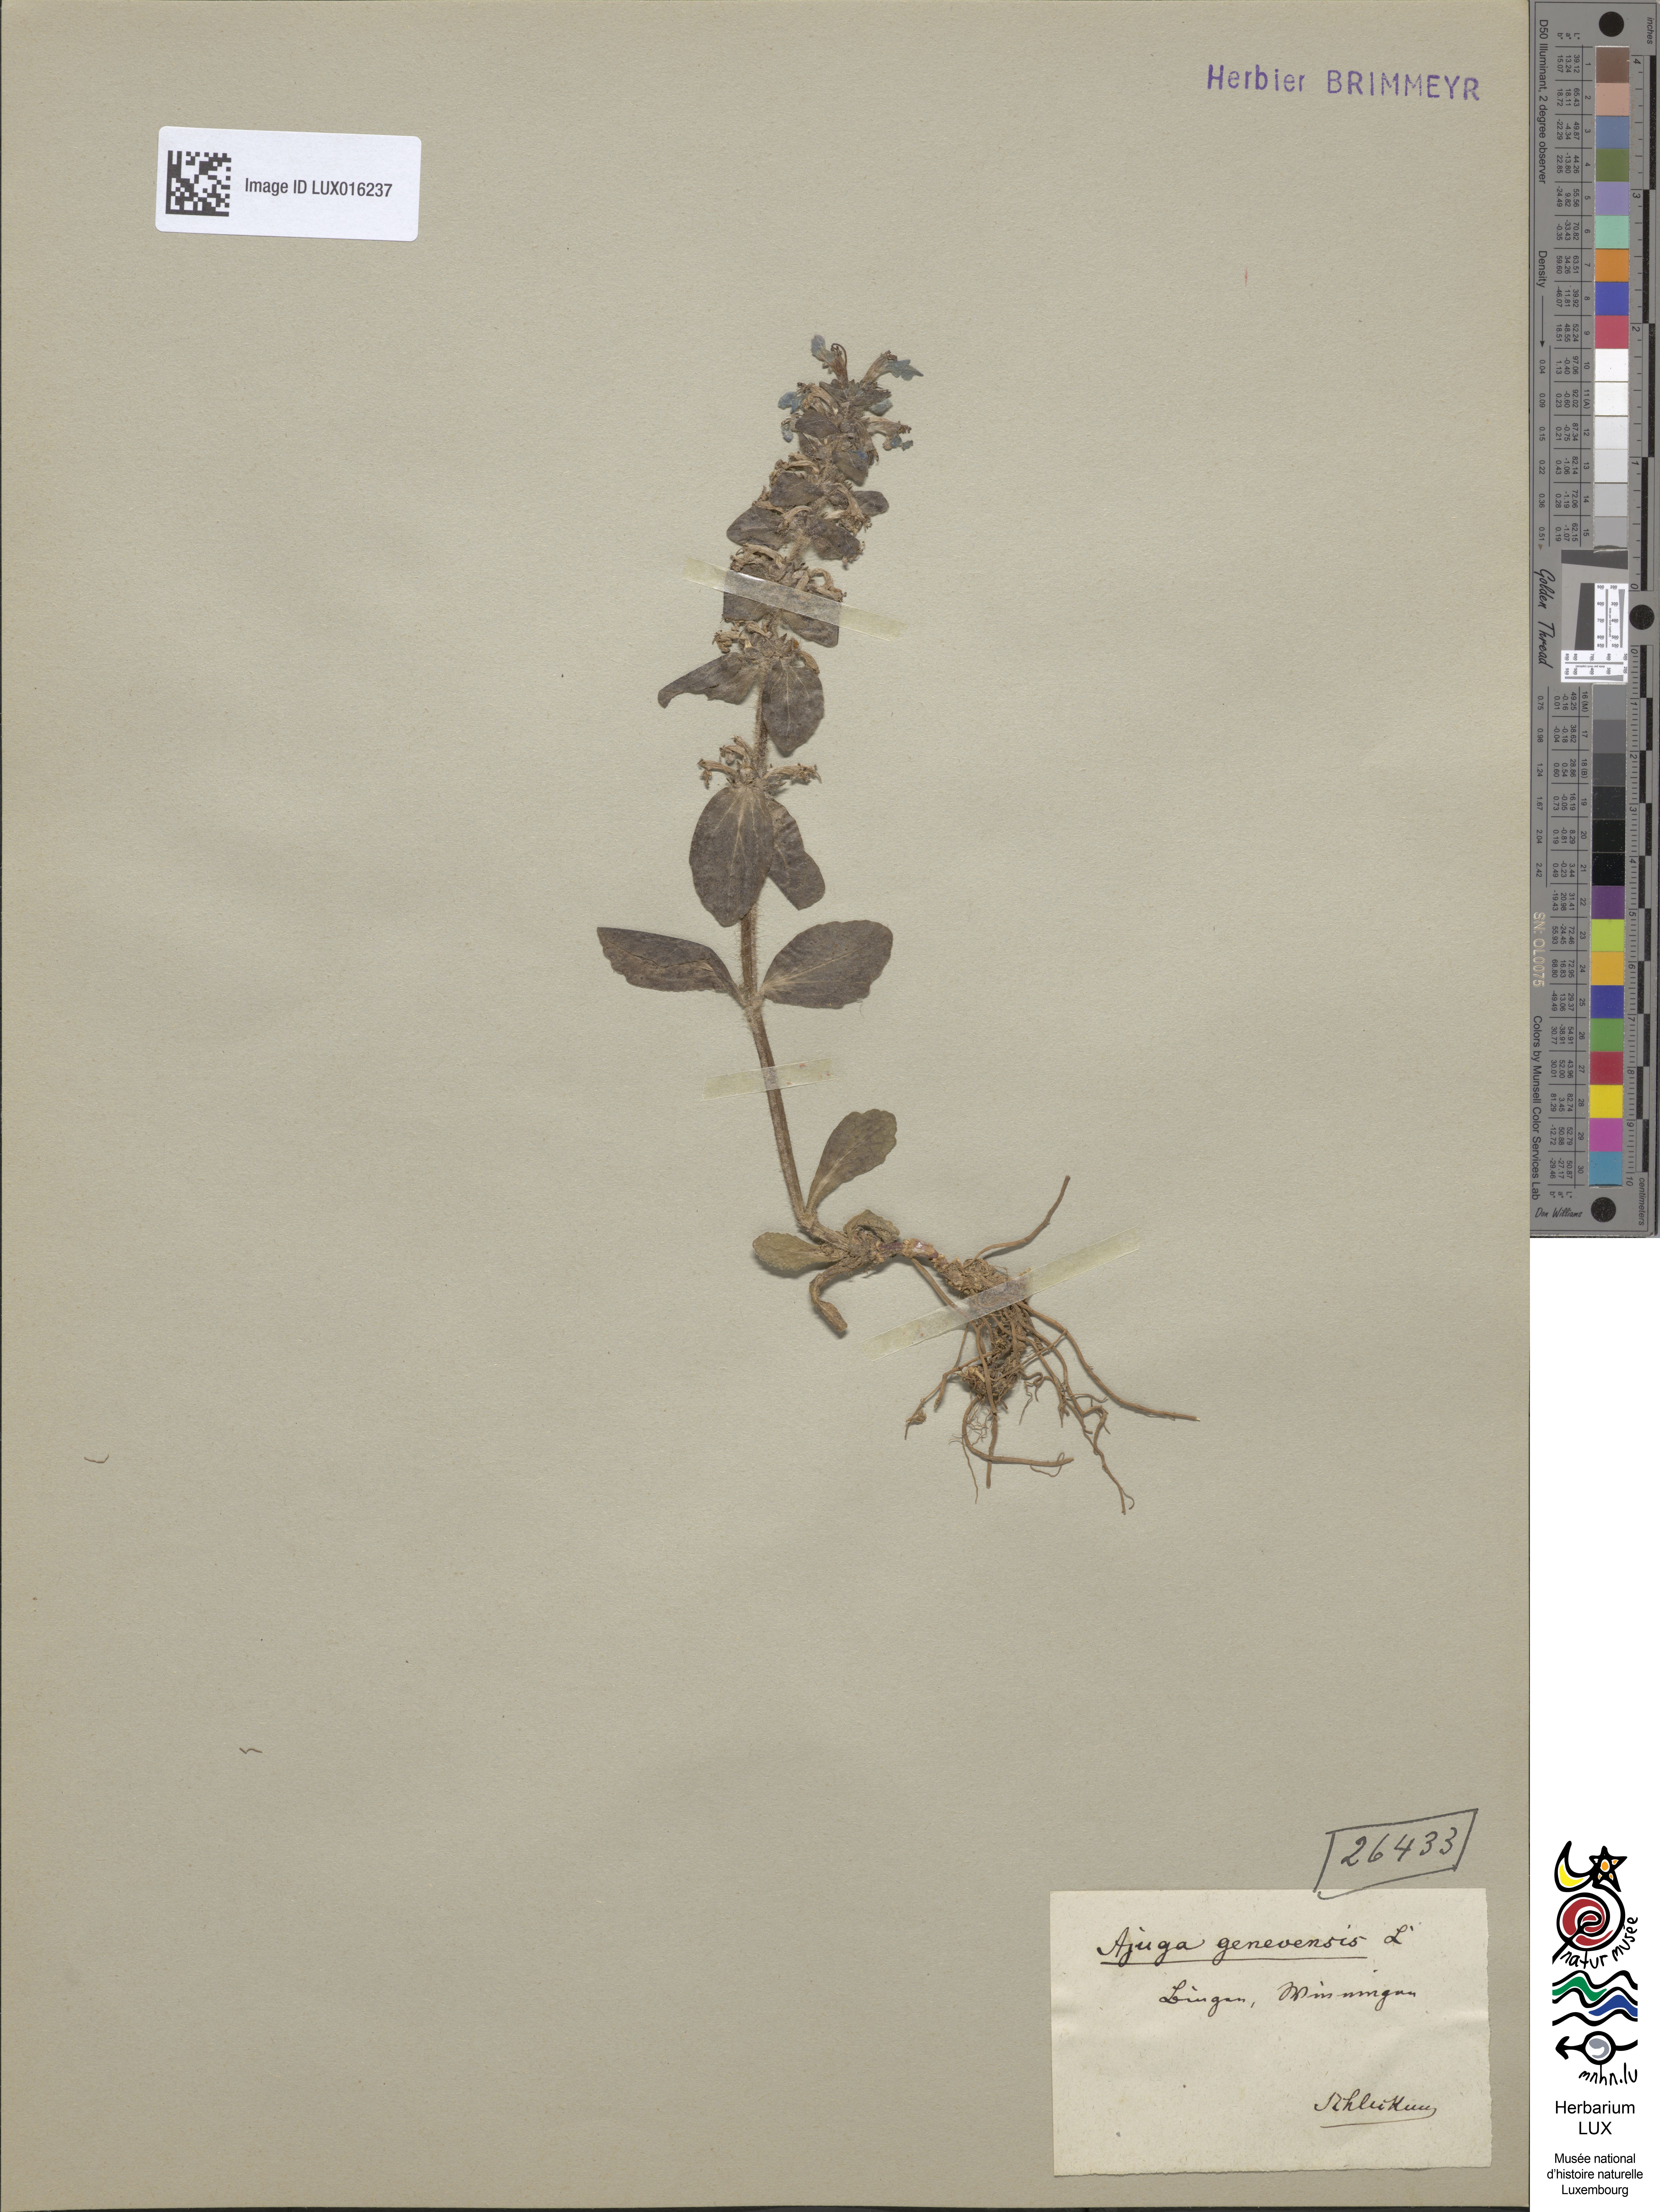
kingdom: Plantae
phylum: Tracheophyta
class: Magnoliopsida
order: Lamiales
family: Lamiaceae
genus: Ajuga
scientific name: Ajuga genevensis
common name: Blue bugle
